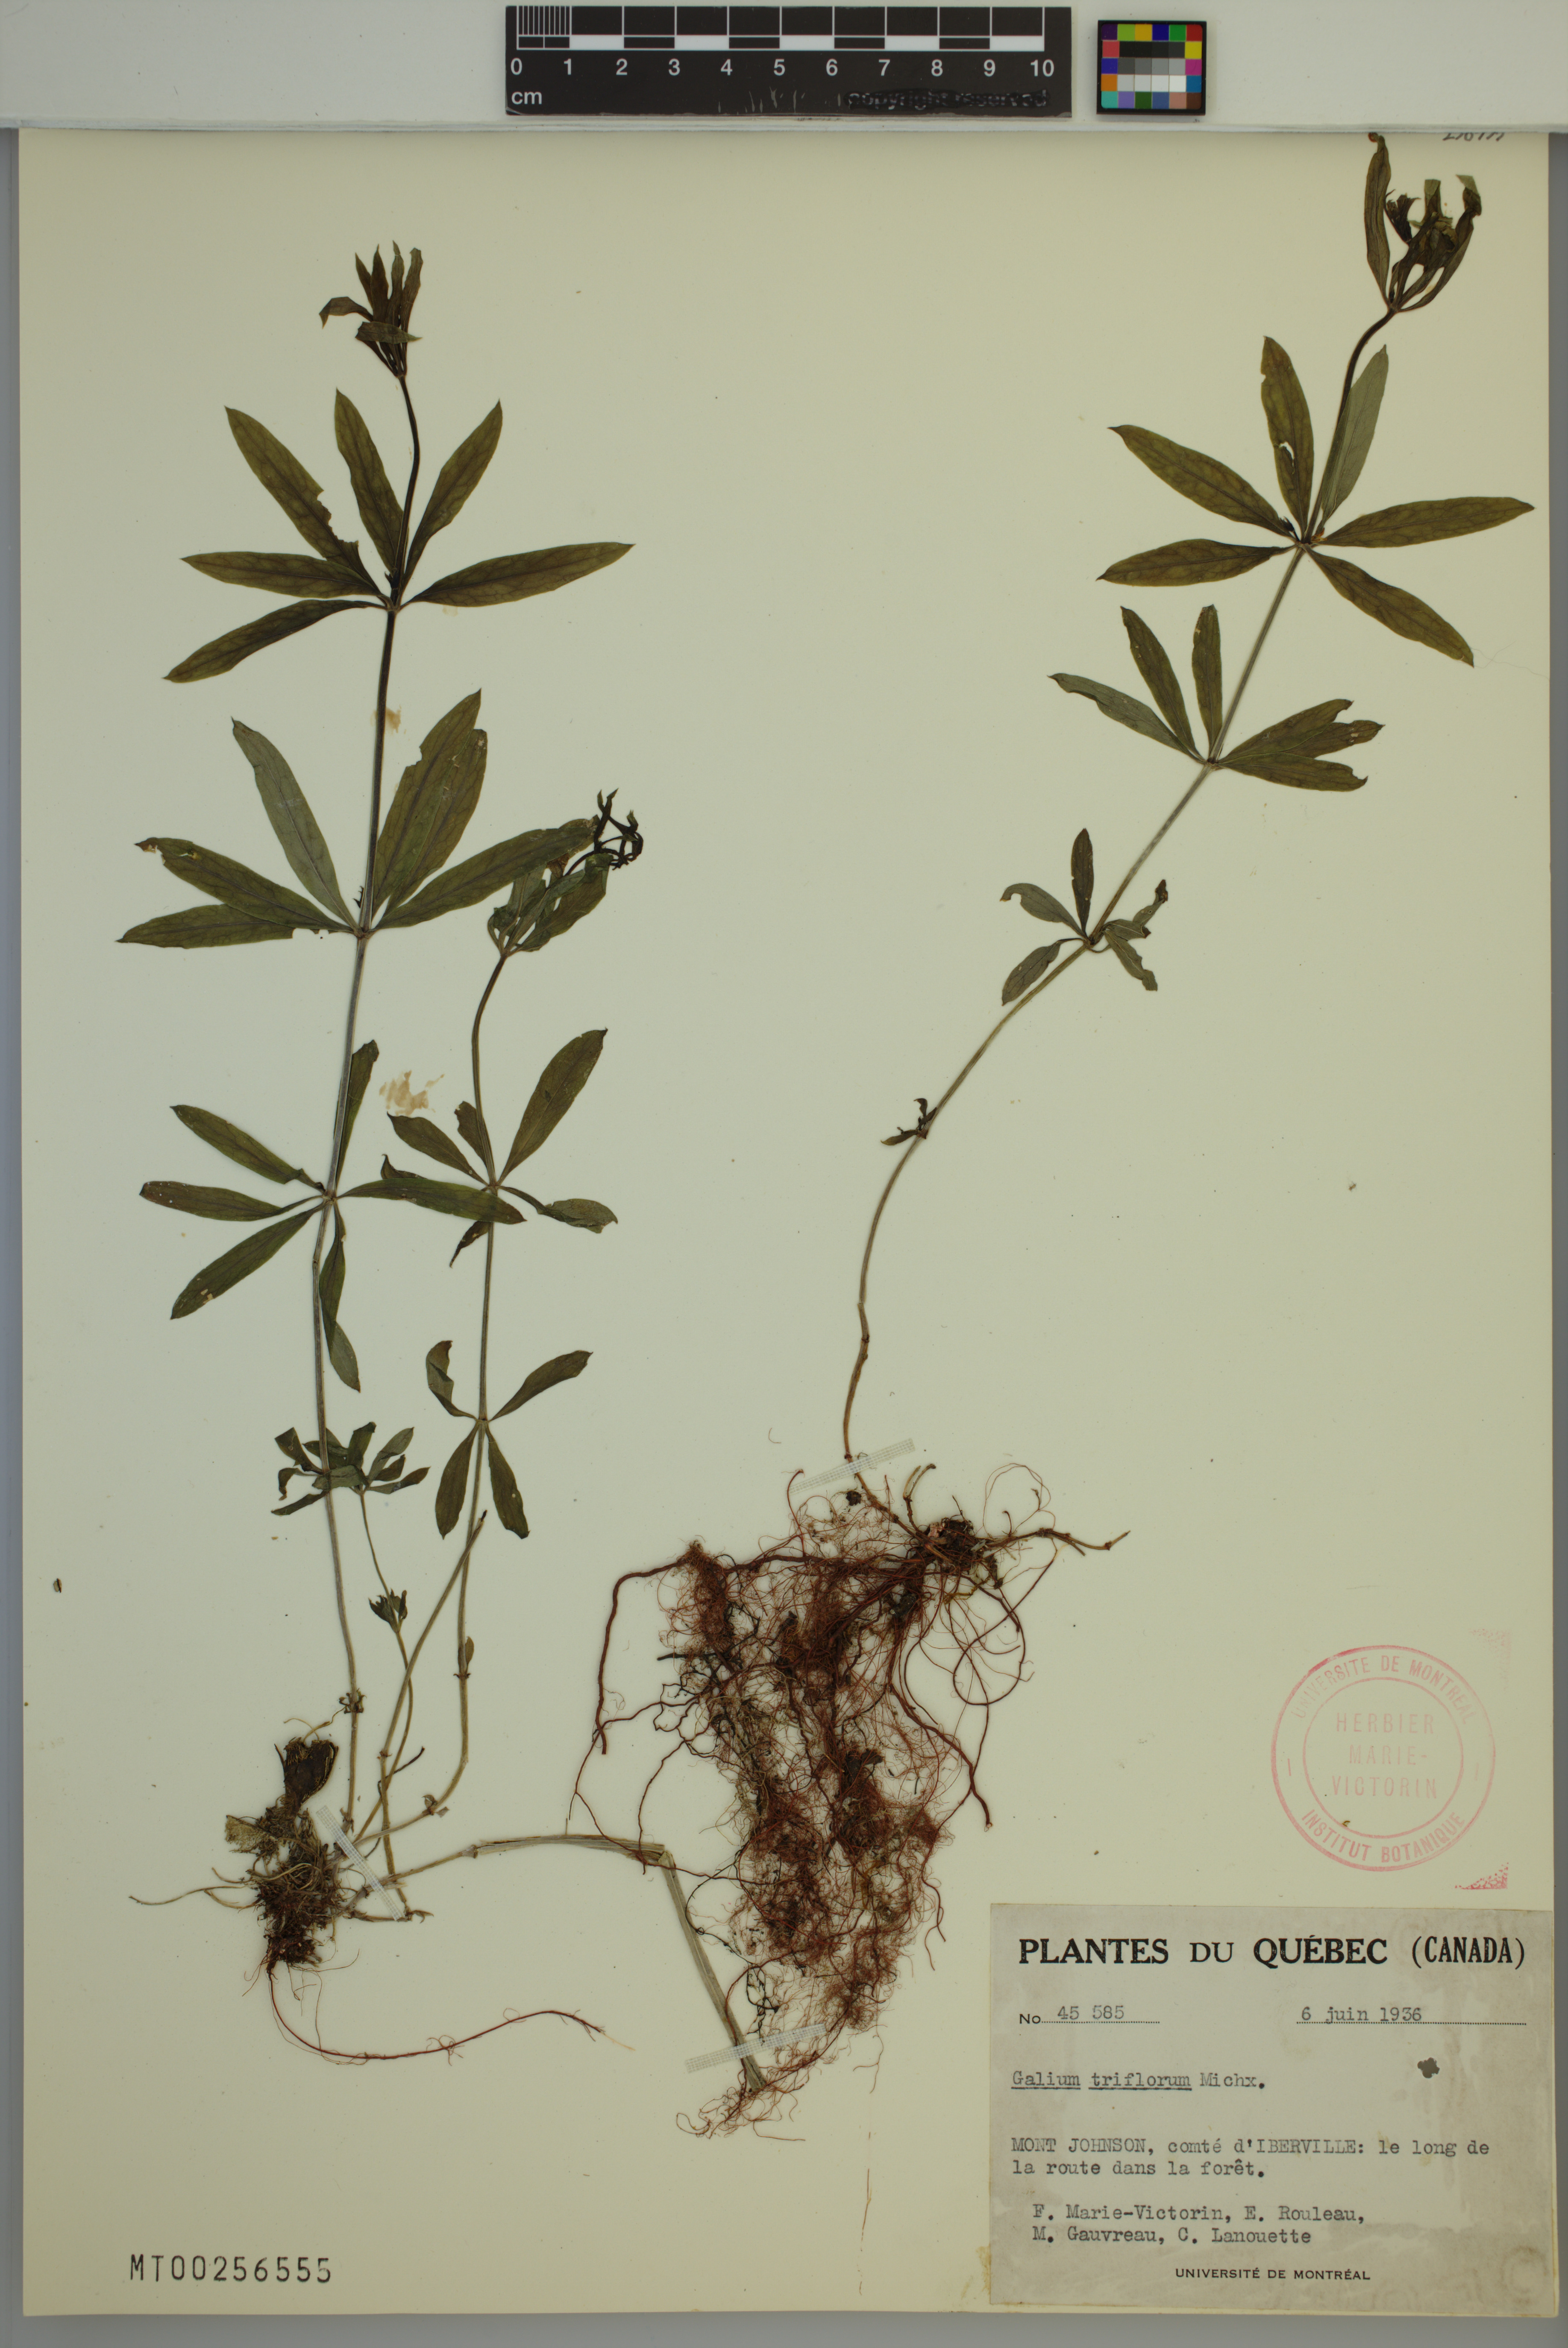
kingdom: Plantae
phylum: Tracheophyta
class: Magnoliopsida
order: Gentianales
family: Rubiaceae
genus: Galium
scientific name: Galium triflorum
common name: Fragrant bedstraw
